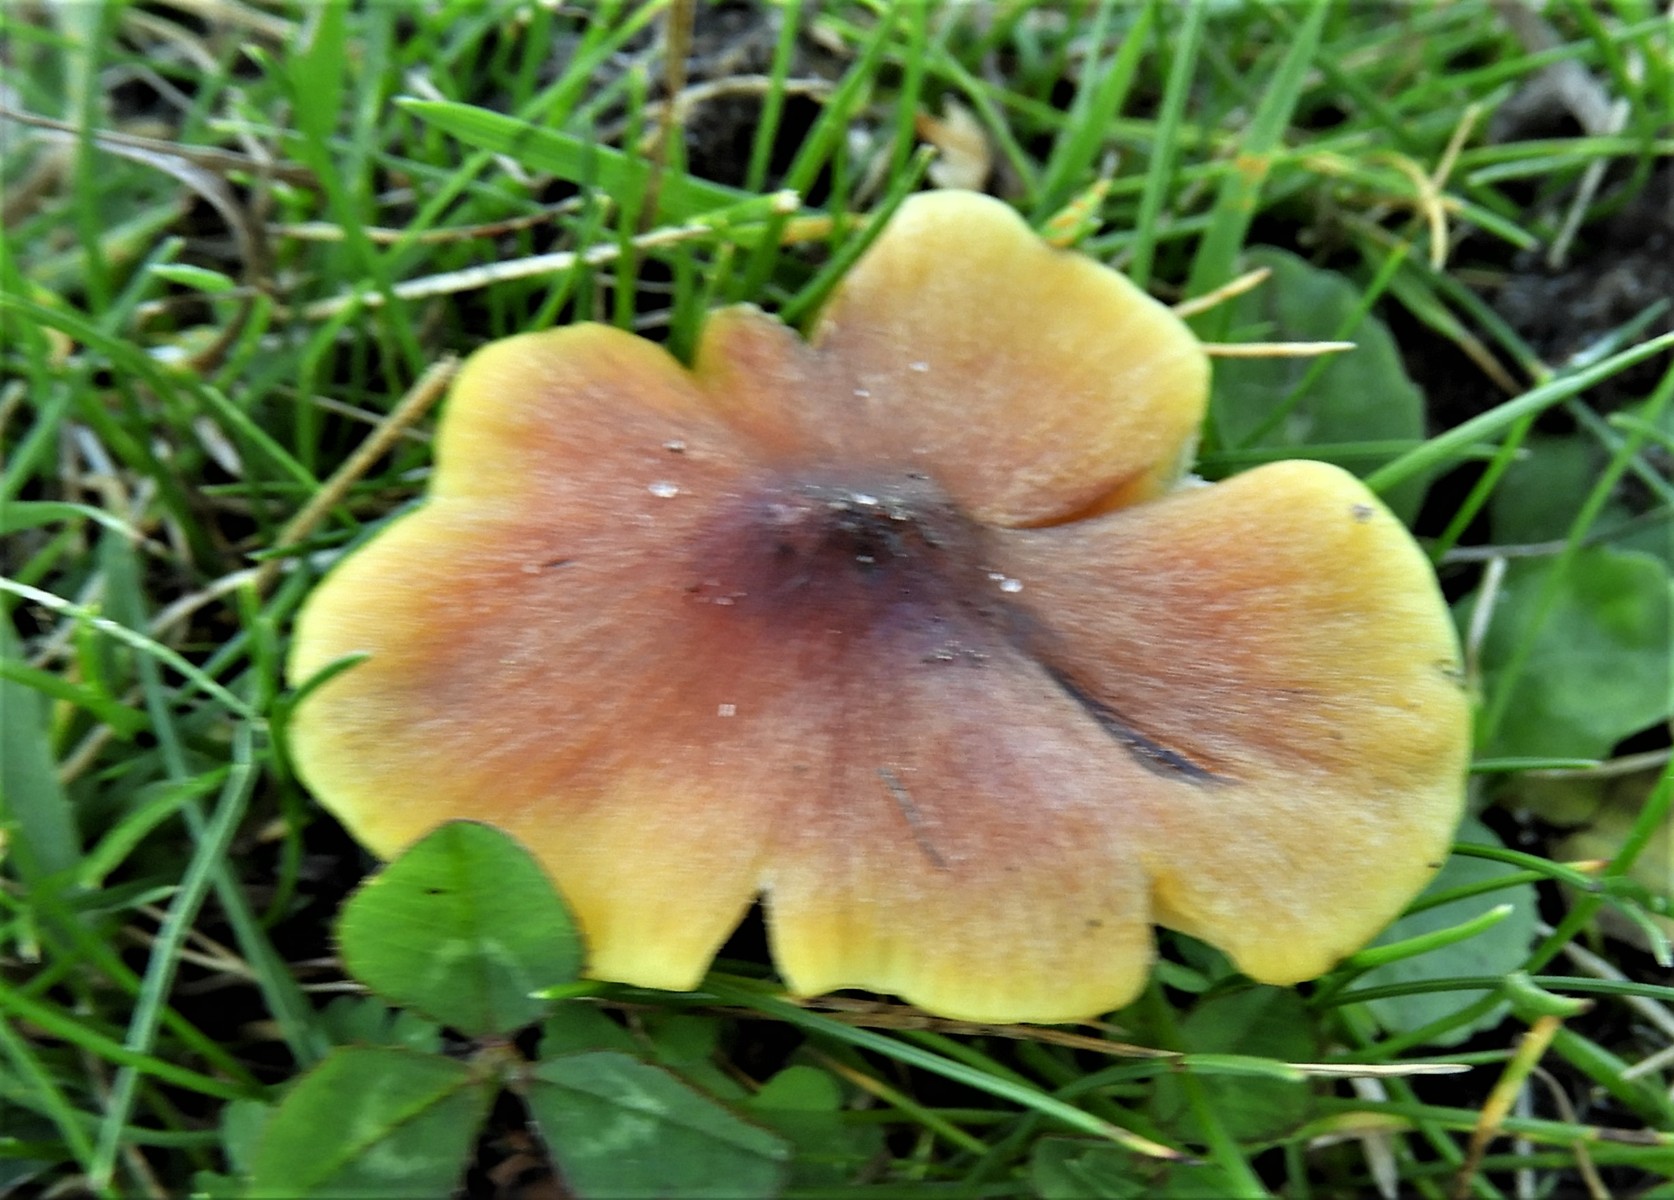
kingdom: Fungi
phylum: Basidiomycota
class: Agaricomycetes
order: Agaricales
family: Hygrophoraceae
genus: Hygrocybe
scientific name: Hygrocybe conica
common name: kegle-vokshat
